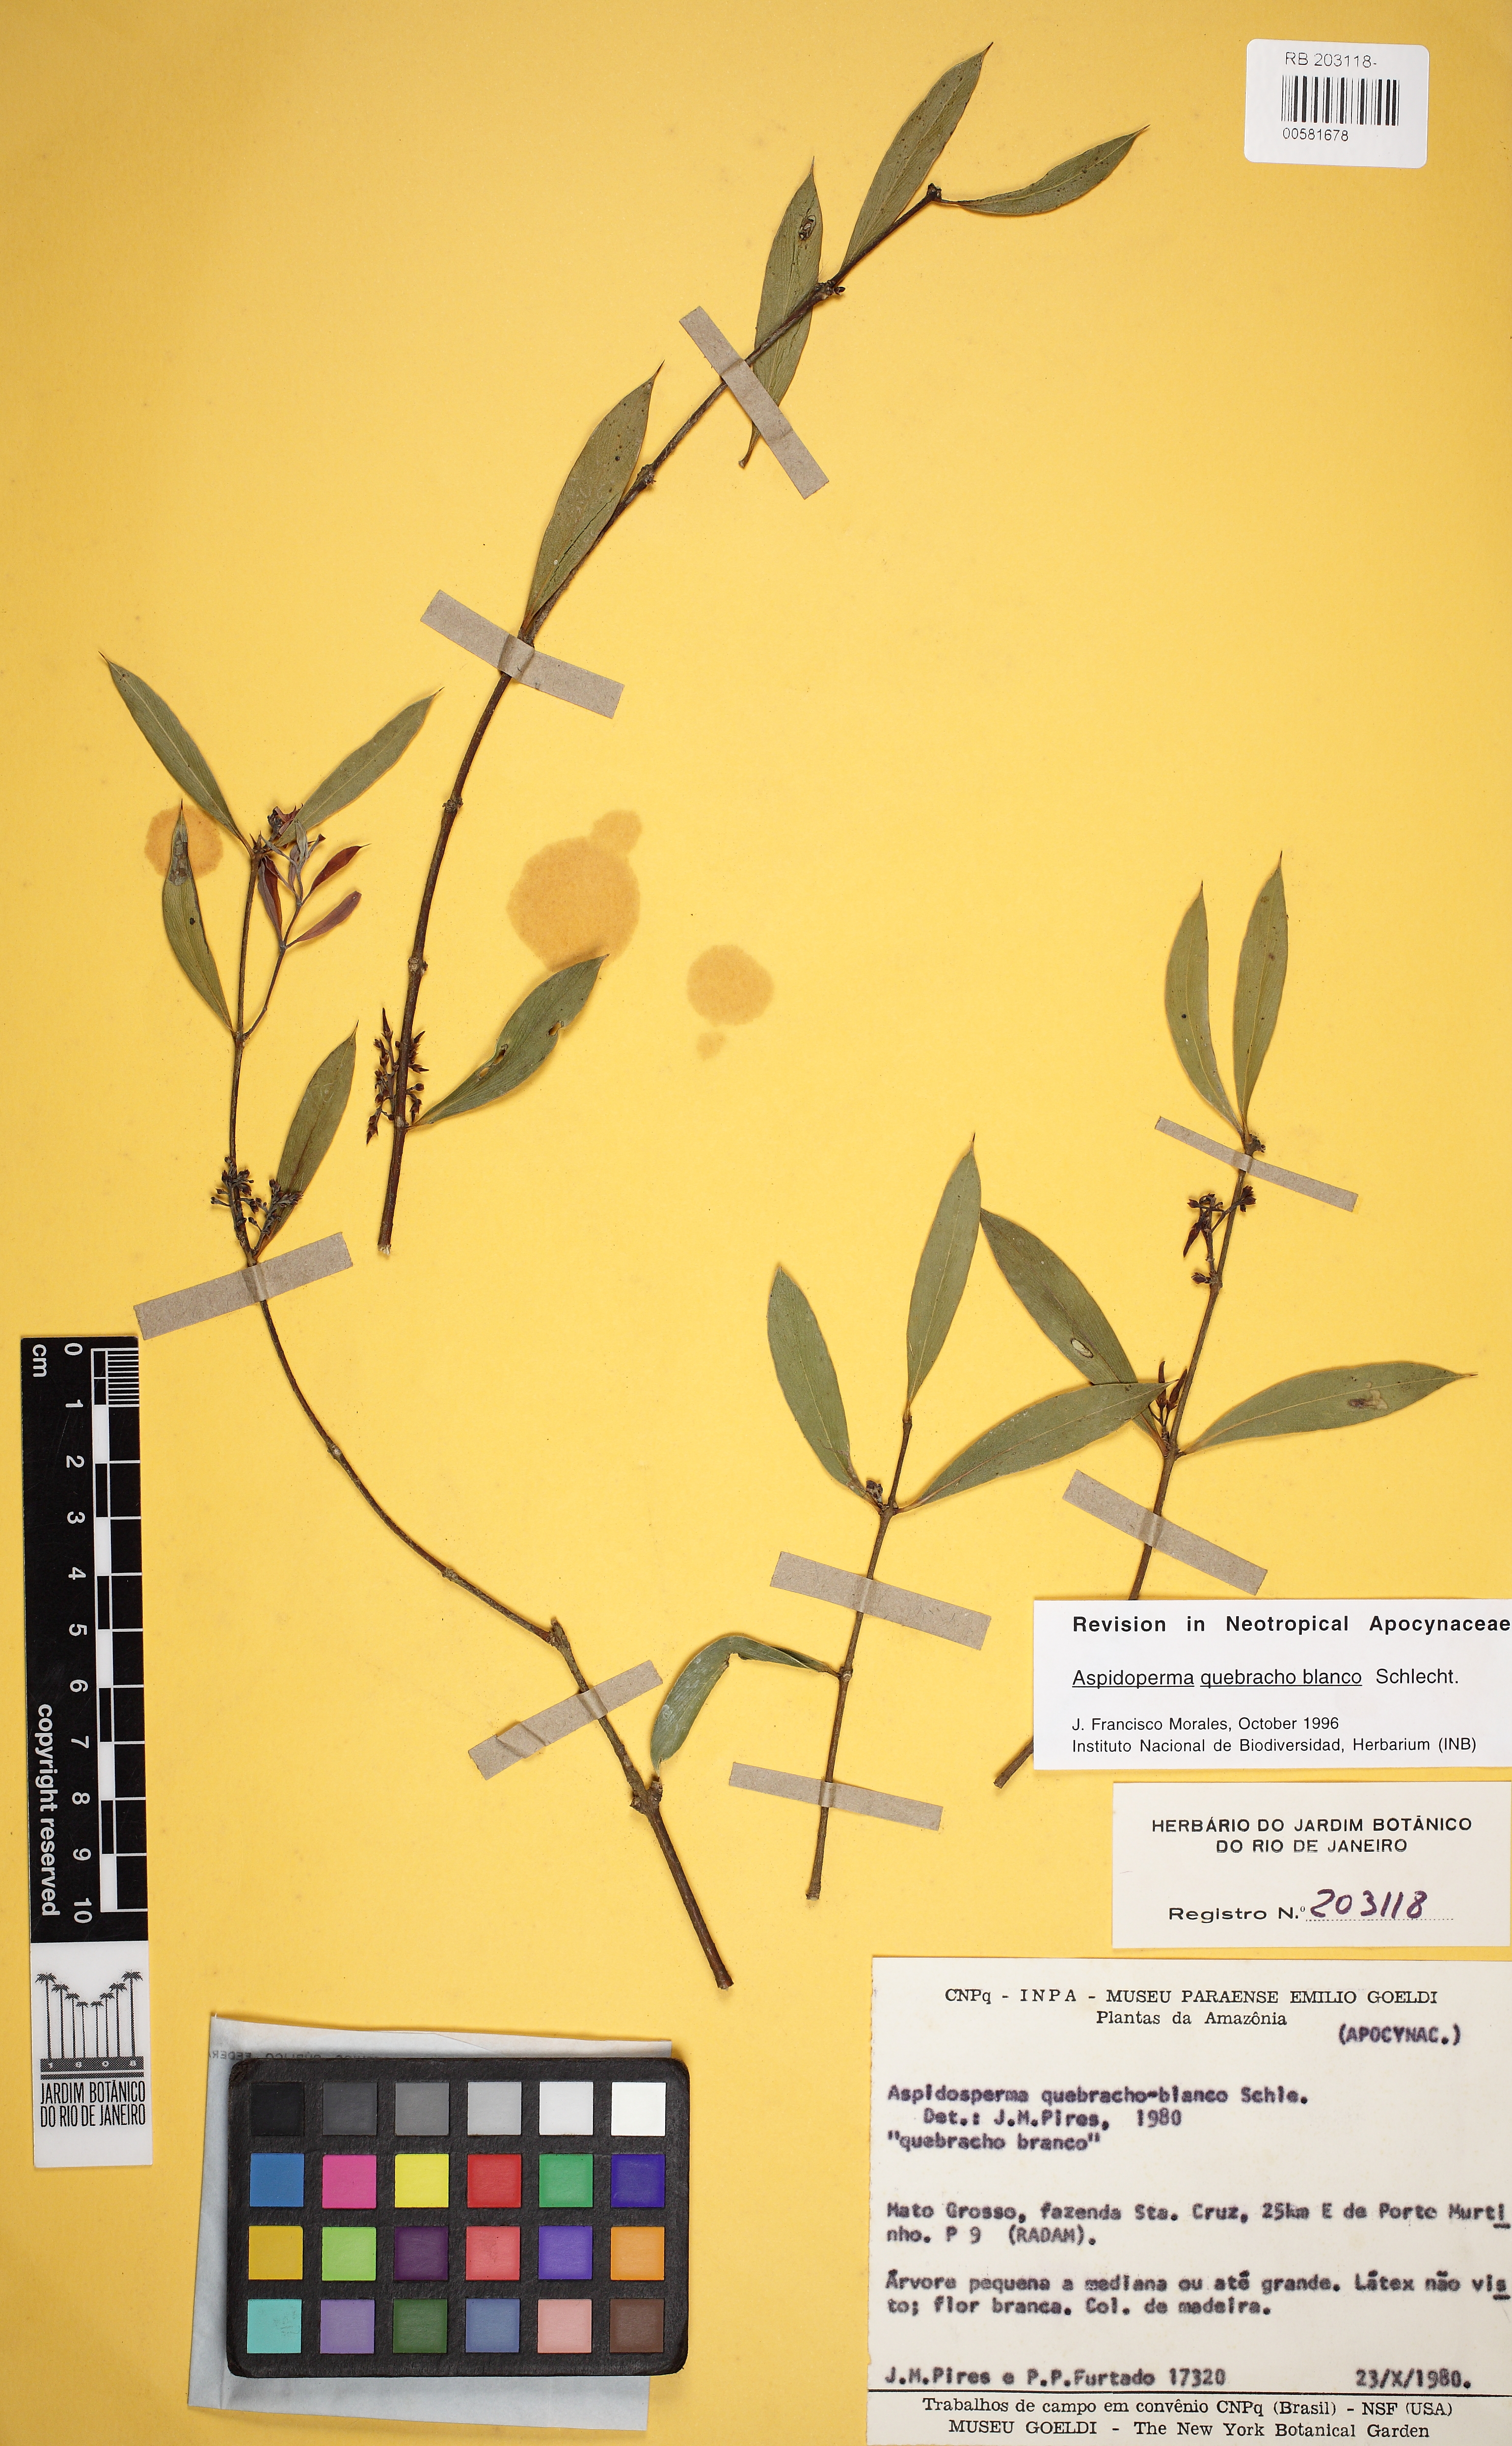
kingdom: Plantae
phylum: Tracheophyta
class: Magnoliopsida
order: Gentianales
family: Apocynaceae
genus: Aspidosperma
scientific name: Aspidosperma quebracho-blanco
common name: White quebracho
